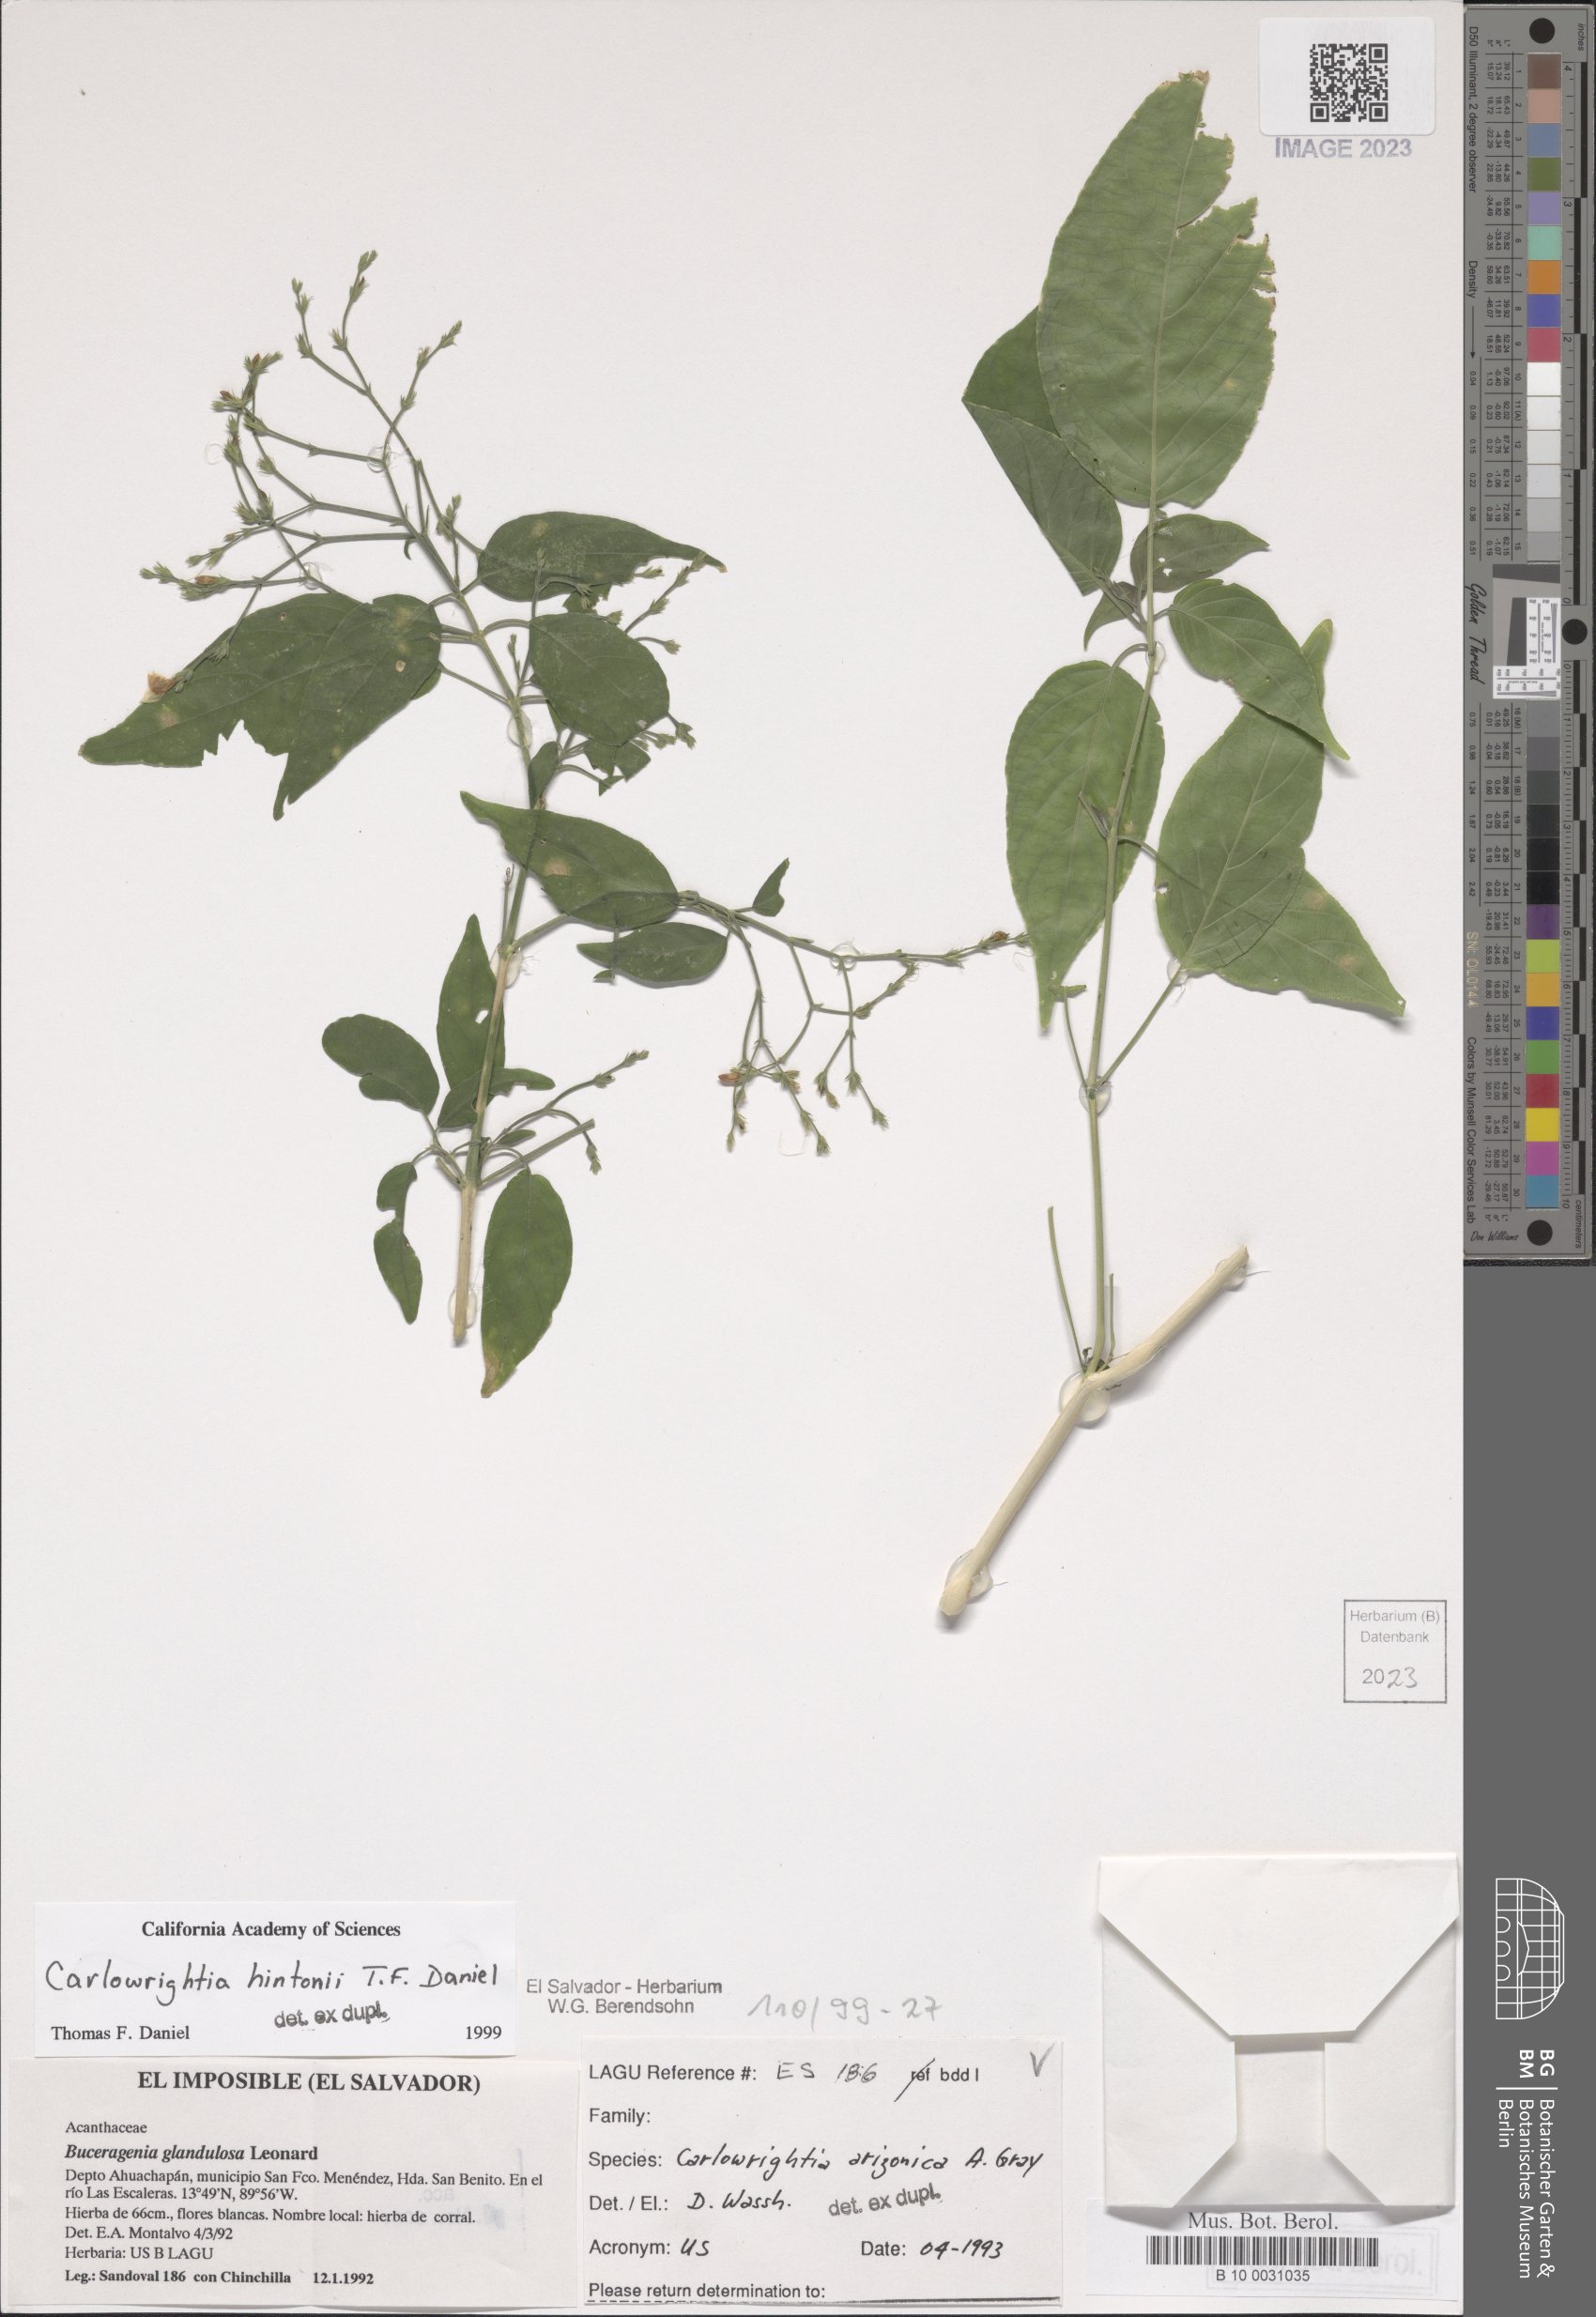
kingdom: Plantae
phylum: Tracheophyta
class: Magnoliopsida
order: Lamiales
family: Acanthaceae
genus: Carlowrightia
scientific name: Carlowrightia arizonica
